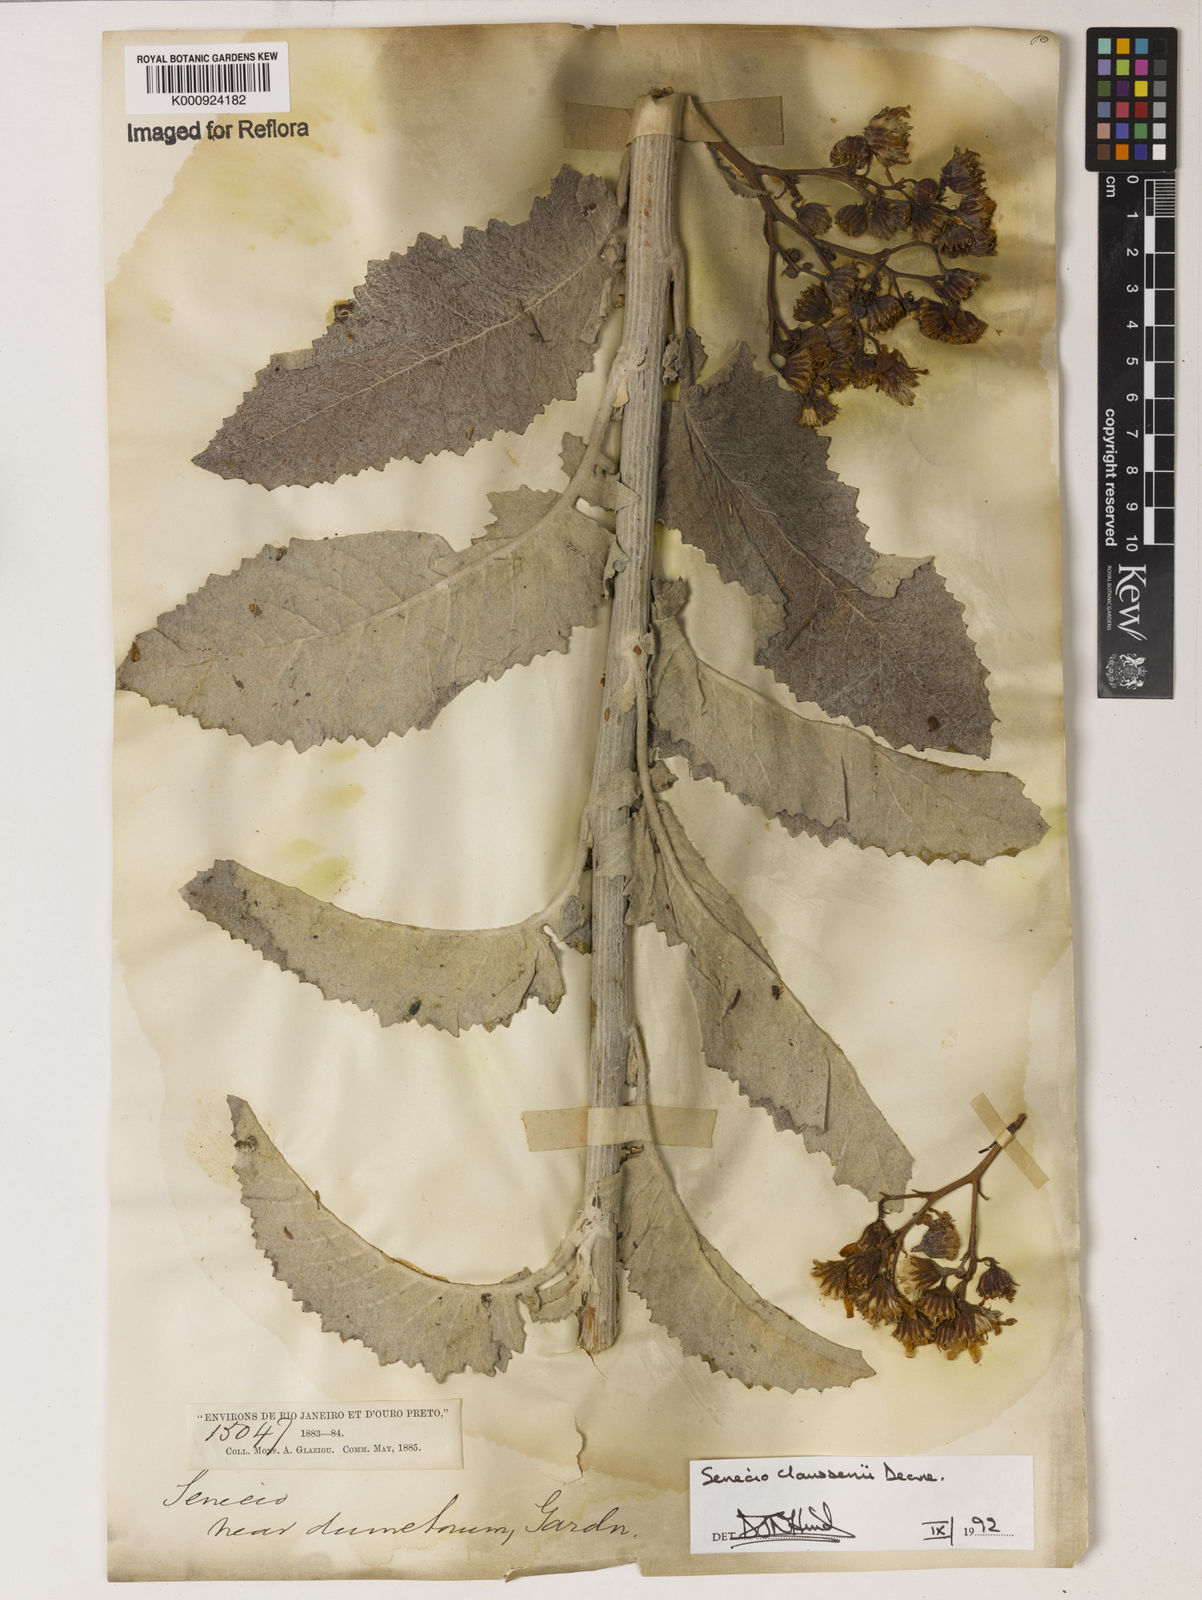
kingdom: Plantae
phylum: Tracheophyta
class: Magnoliopsida
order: Asterales
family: Asteraceae
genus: Senecio
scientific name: Senecio claussenii
